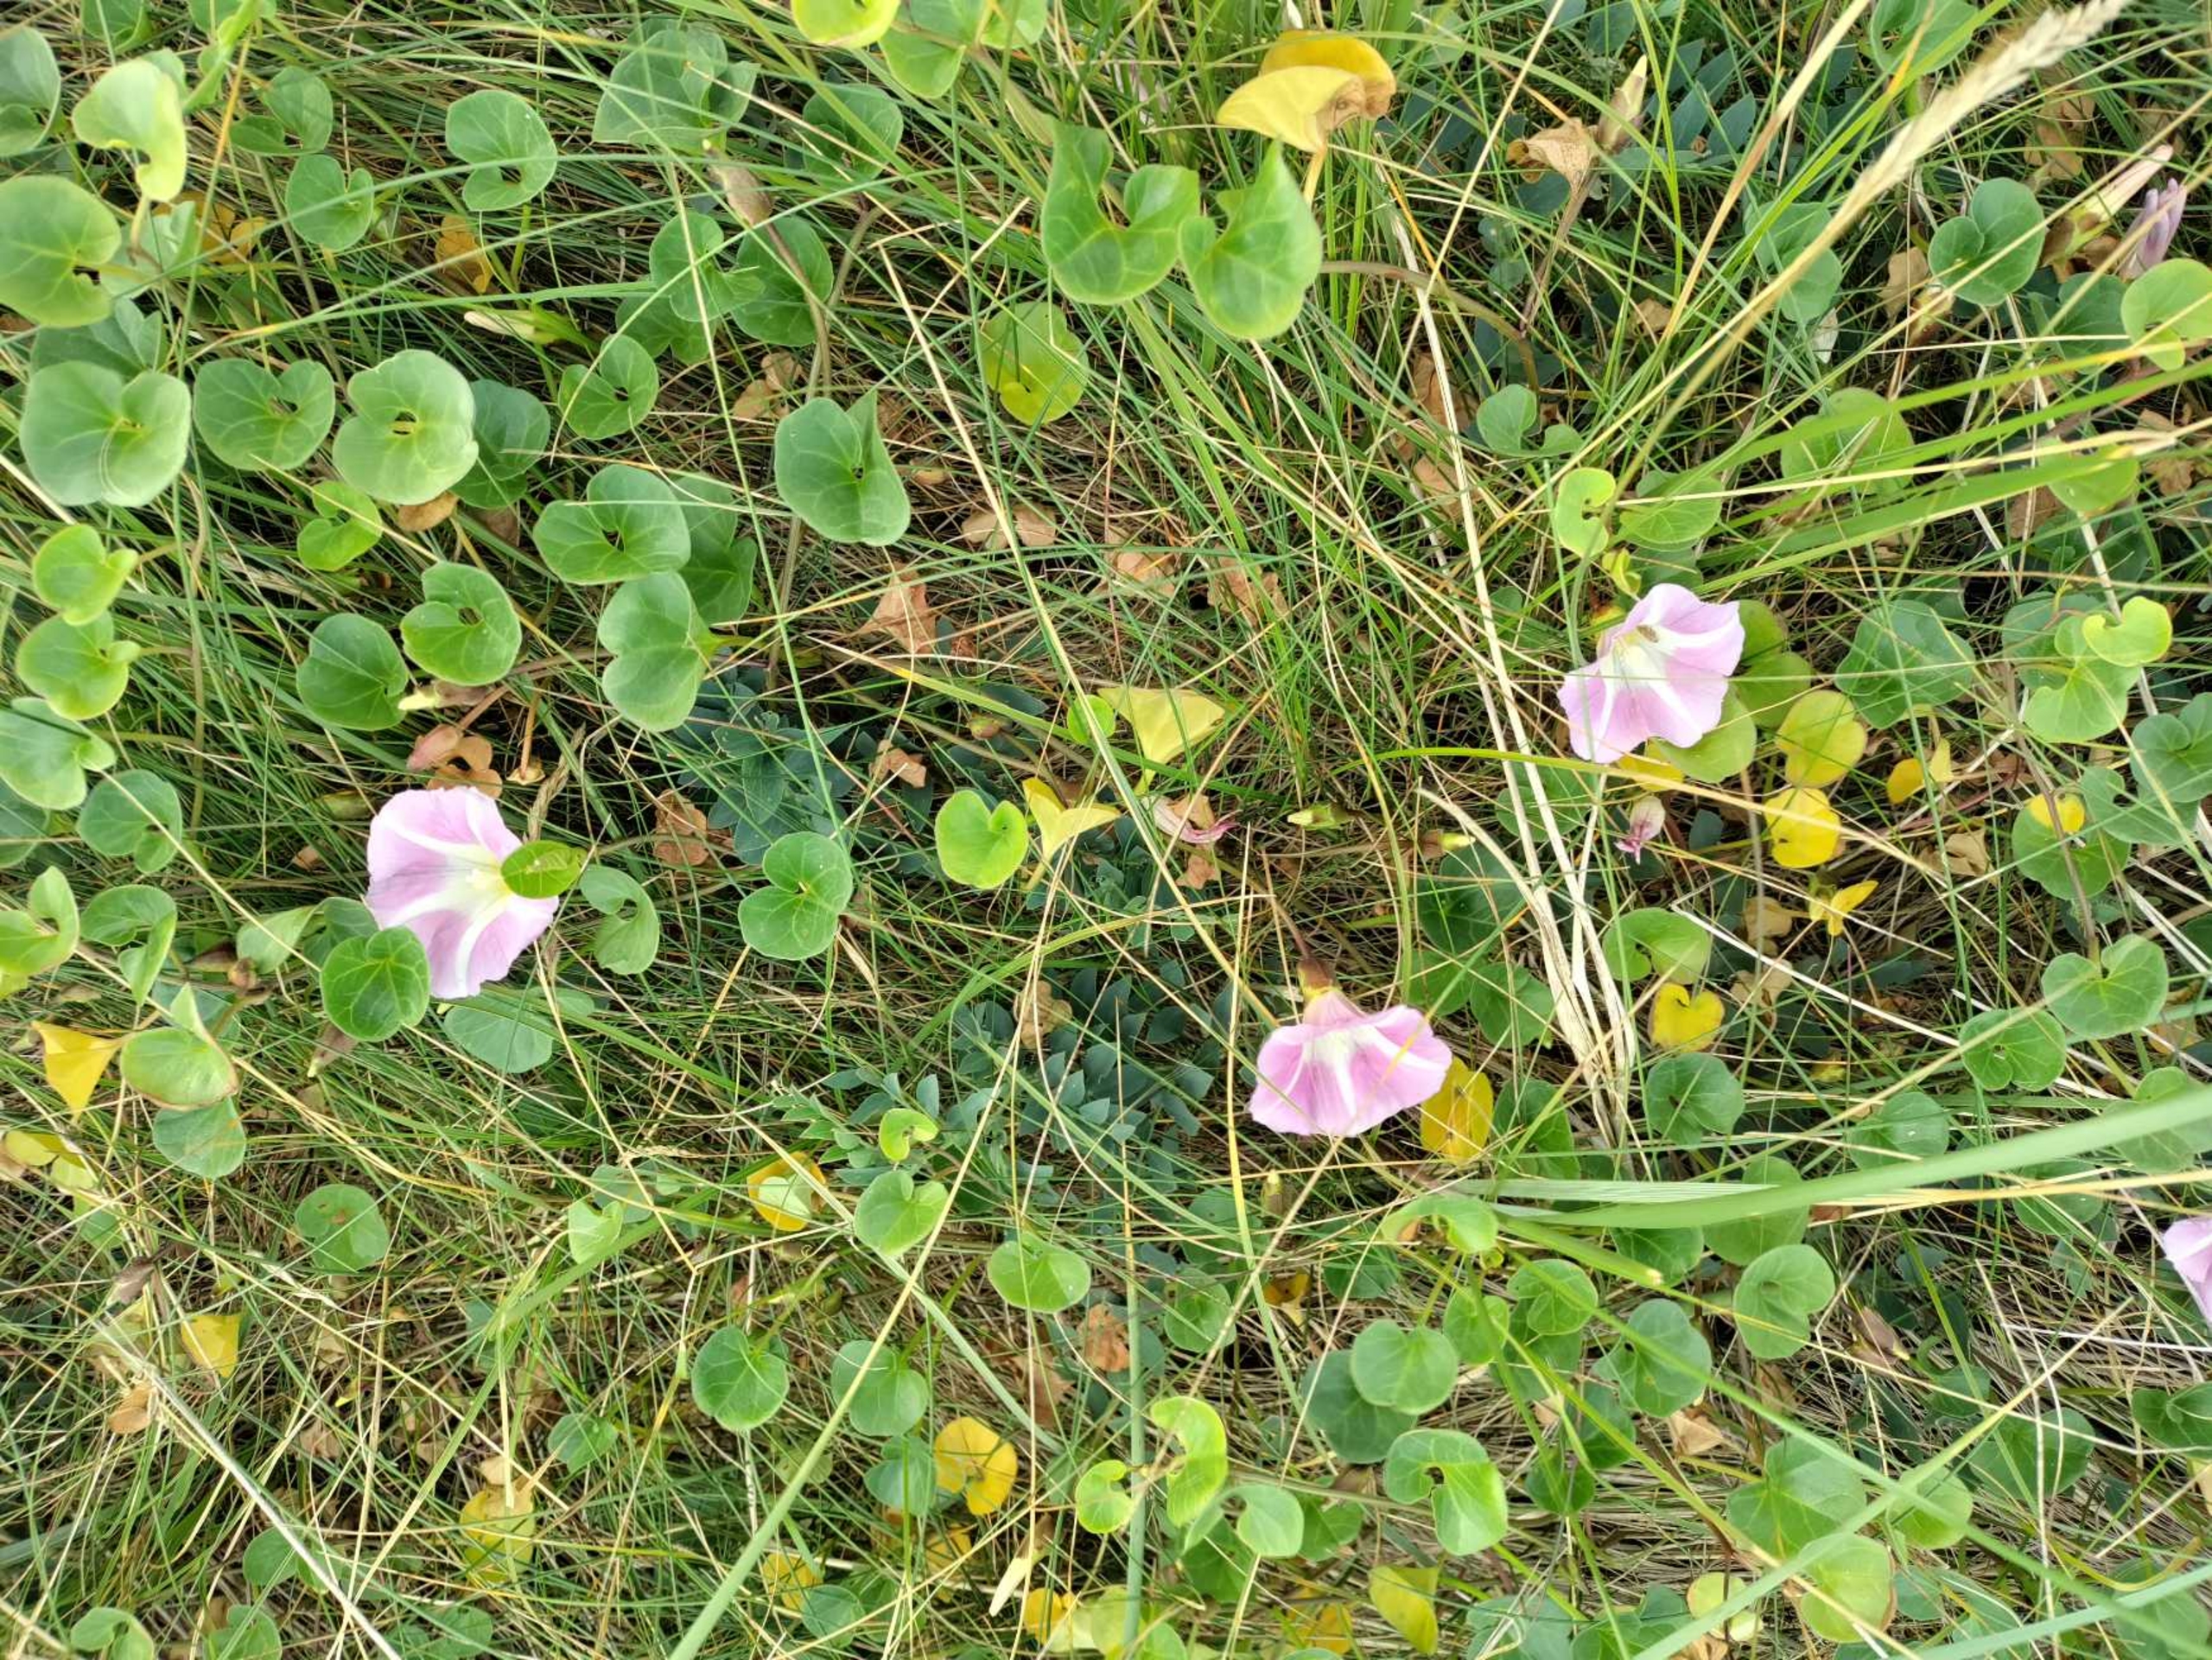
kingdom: Plantae
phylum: Tracheophyta
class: Magnoliopsida
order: Solanales
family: Convolvulaceae
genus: Calystegia
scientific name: Calystegia soldanella
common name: Strand-snerle
